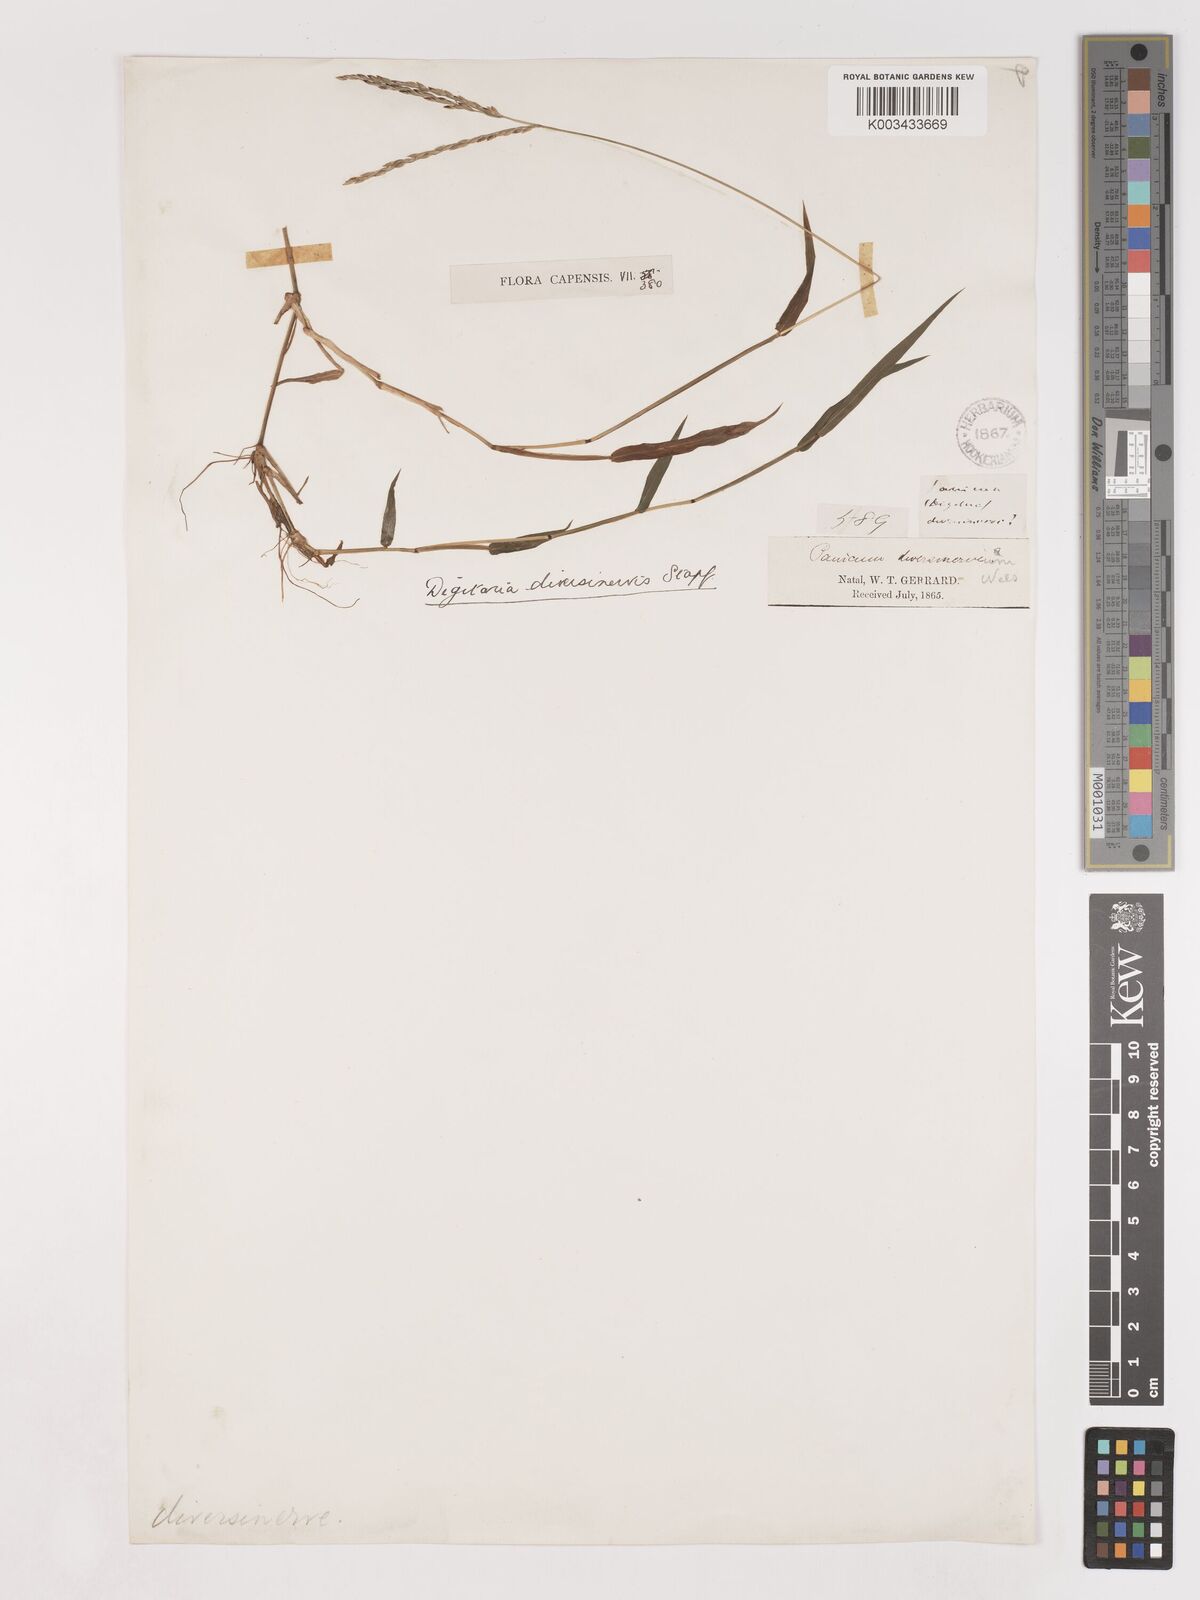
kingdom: Plantae
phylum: Tracheophyta
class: Liliopsida
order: Poales
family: Poaceae
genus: Digitaria
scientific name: Digitaria diversinervis
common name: Richmond finger grass
